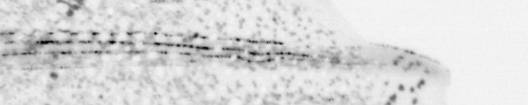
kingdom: Animalia
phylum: Chordata
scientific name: Chordata
